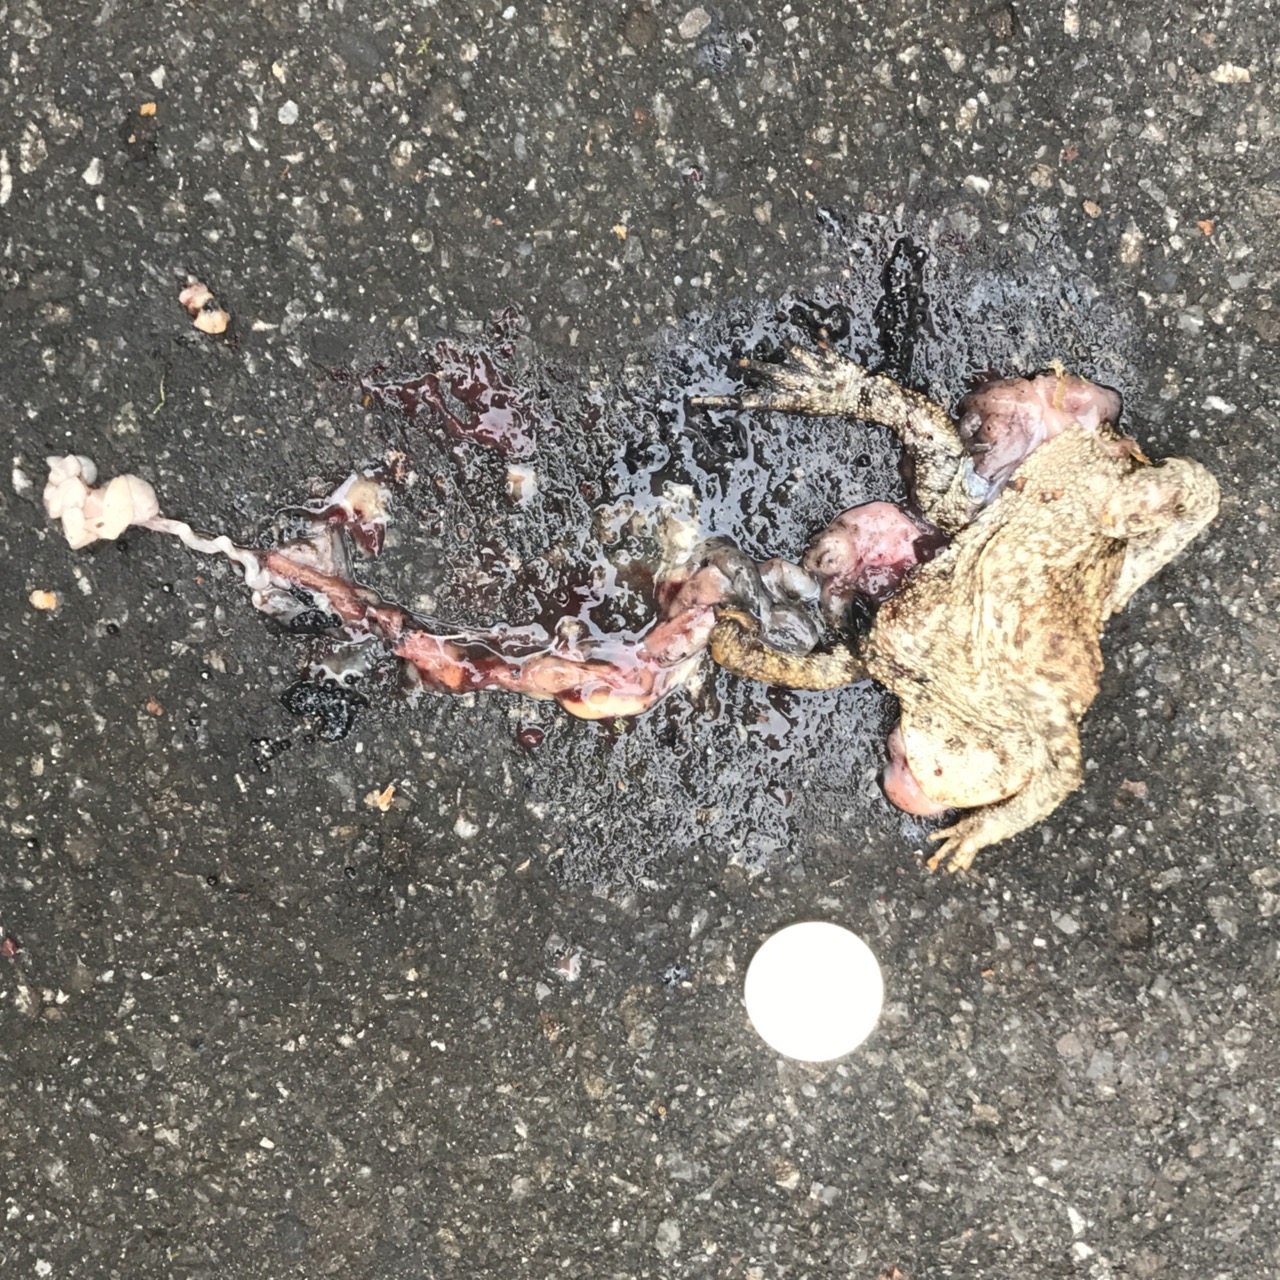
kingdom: Animalia
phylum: Chordata
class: Amphibia
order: Anura
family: Bufonidae
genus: Bufo
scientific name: Bufo bufo
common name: Common toad
